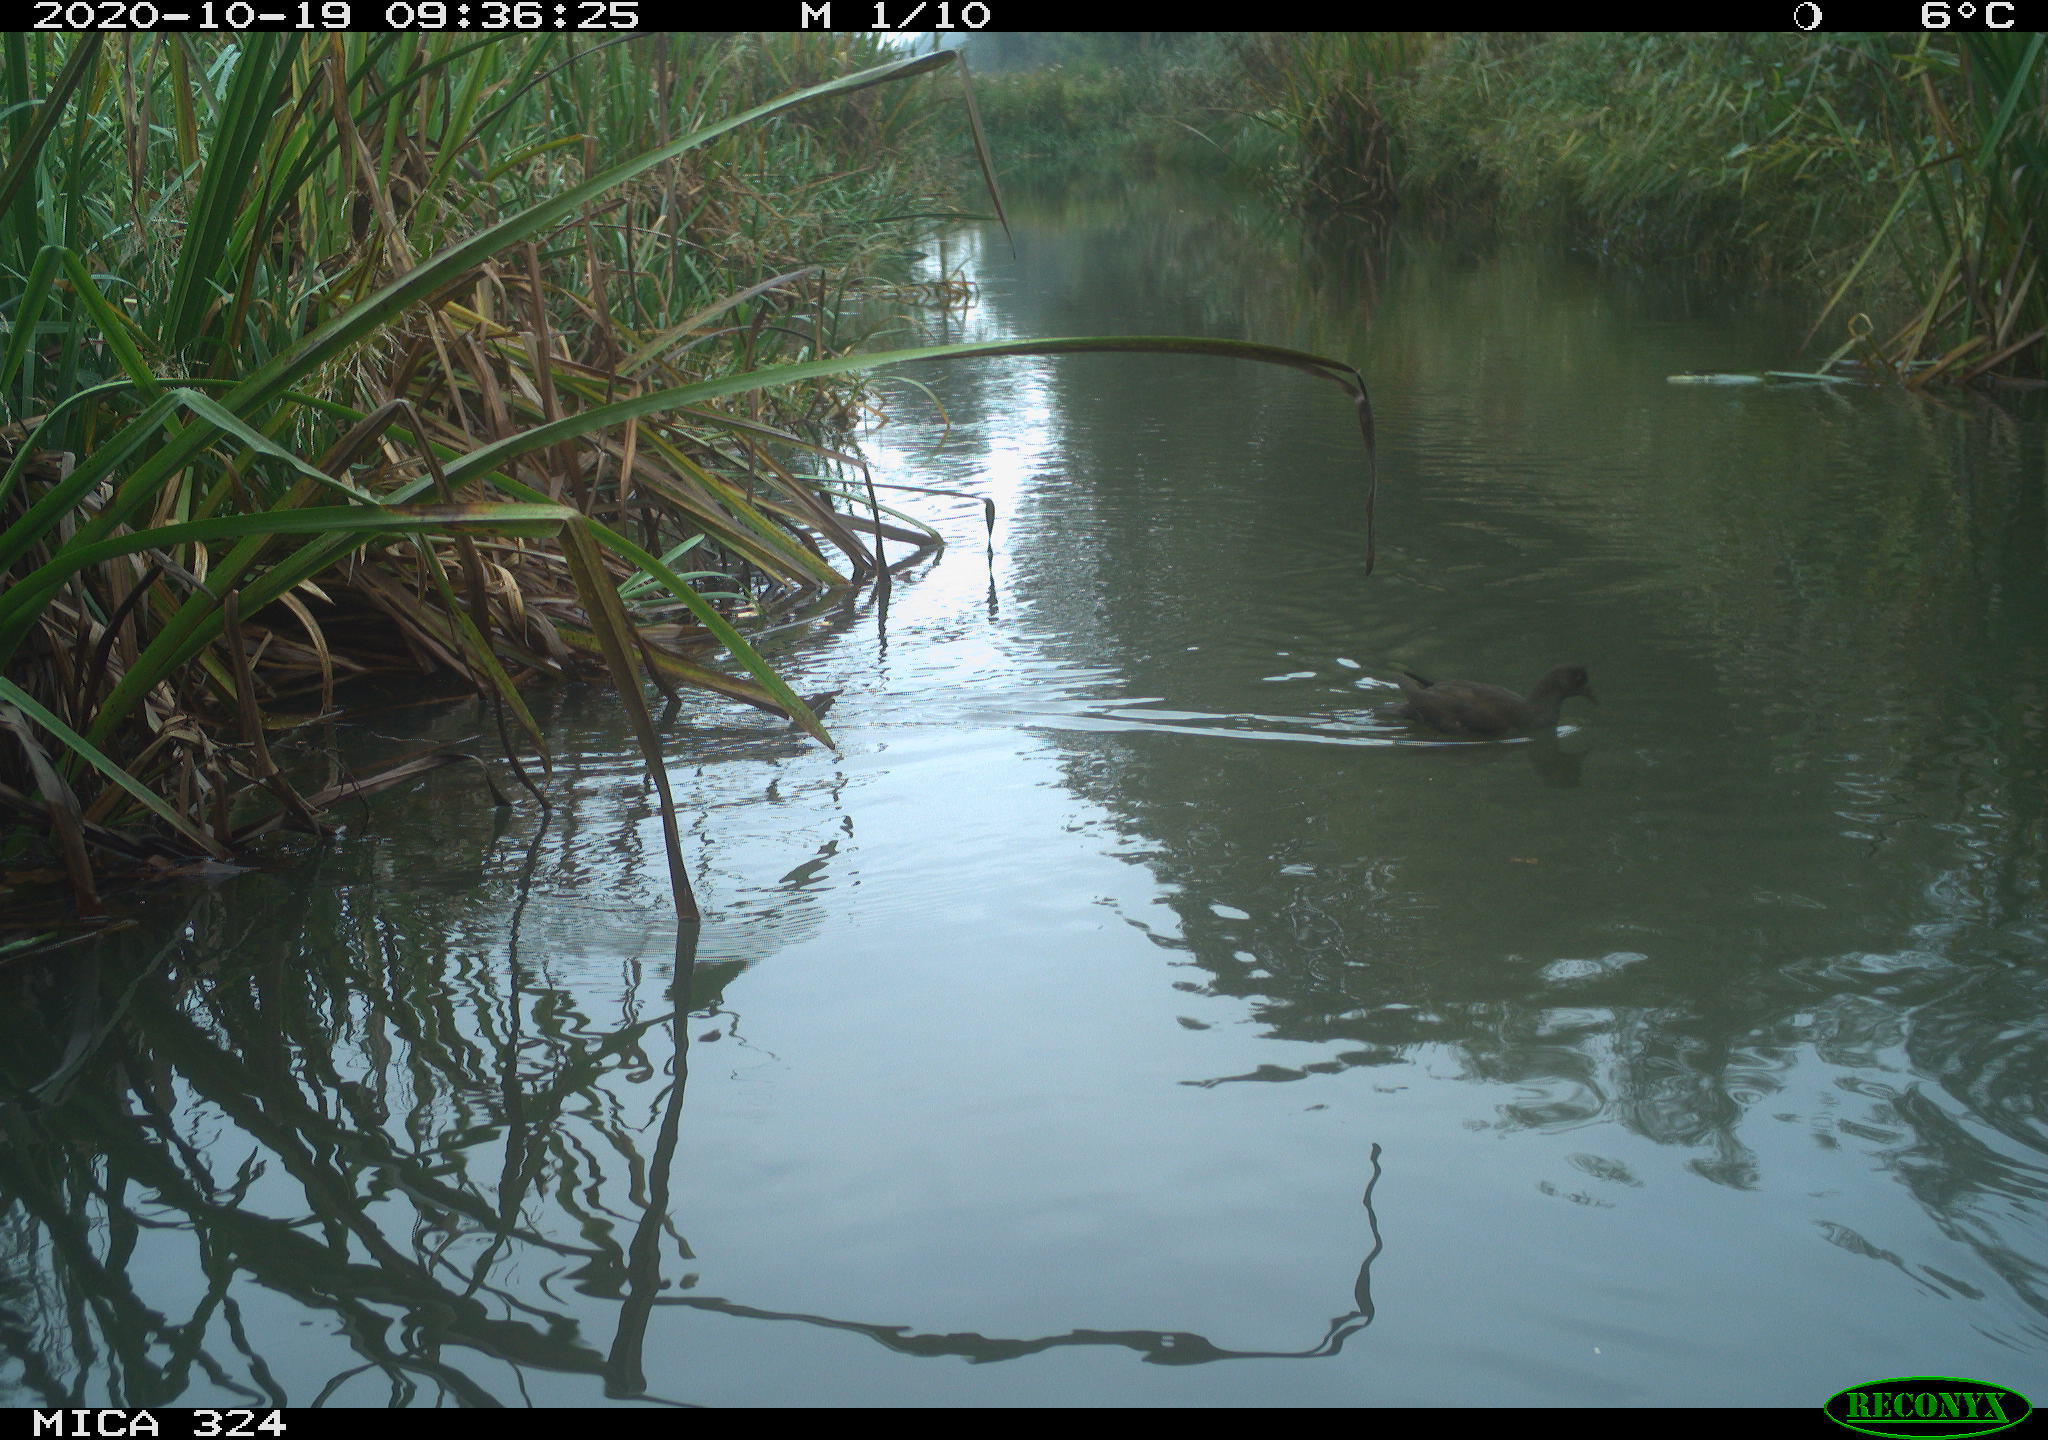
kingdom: Animalia
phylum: Chordata
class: Aves
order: Gruiformes
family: Rallidae
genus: Gallinula
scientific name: Gallinula chloropus
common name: Common moorhen
